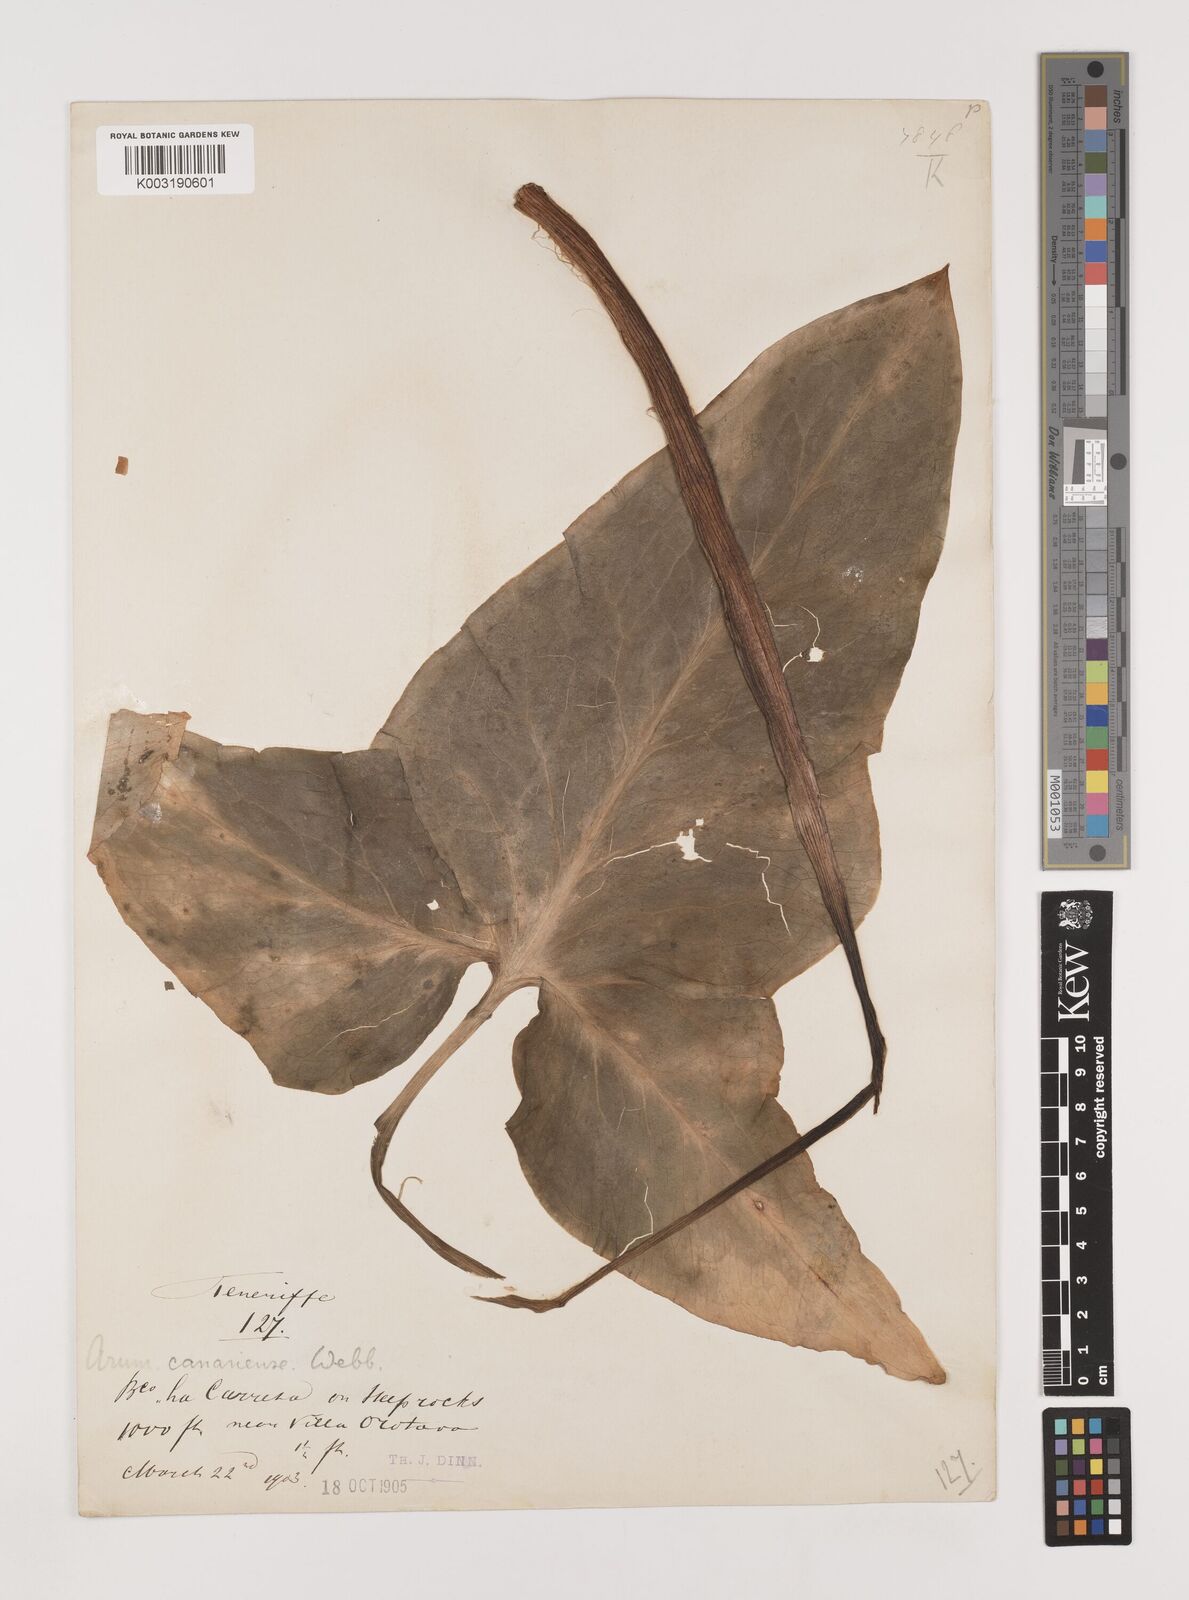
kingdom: Plantae
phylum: Tracheophyta
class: Liliopsida
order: Alismatales
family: Araceae
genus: Arum
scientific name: Arum italicum
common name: Italian lords-and-ladies
